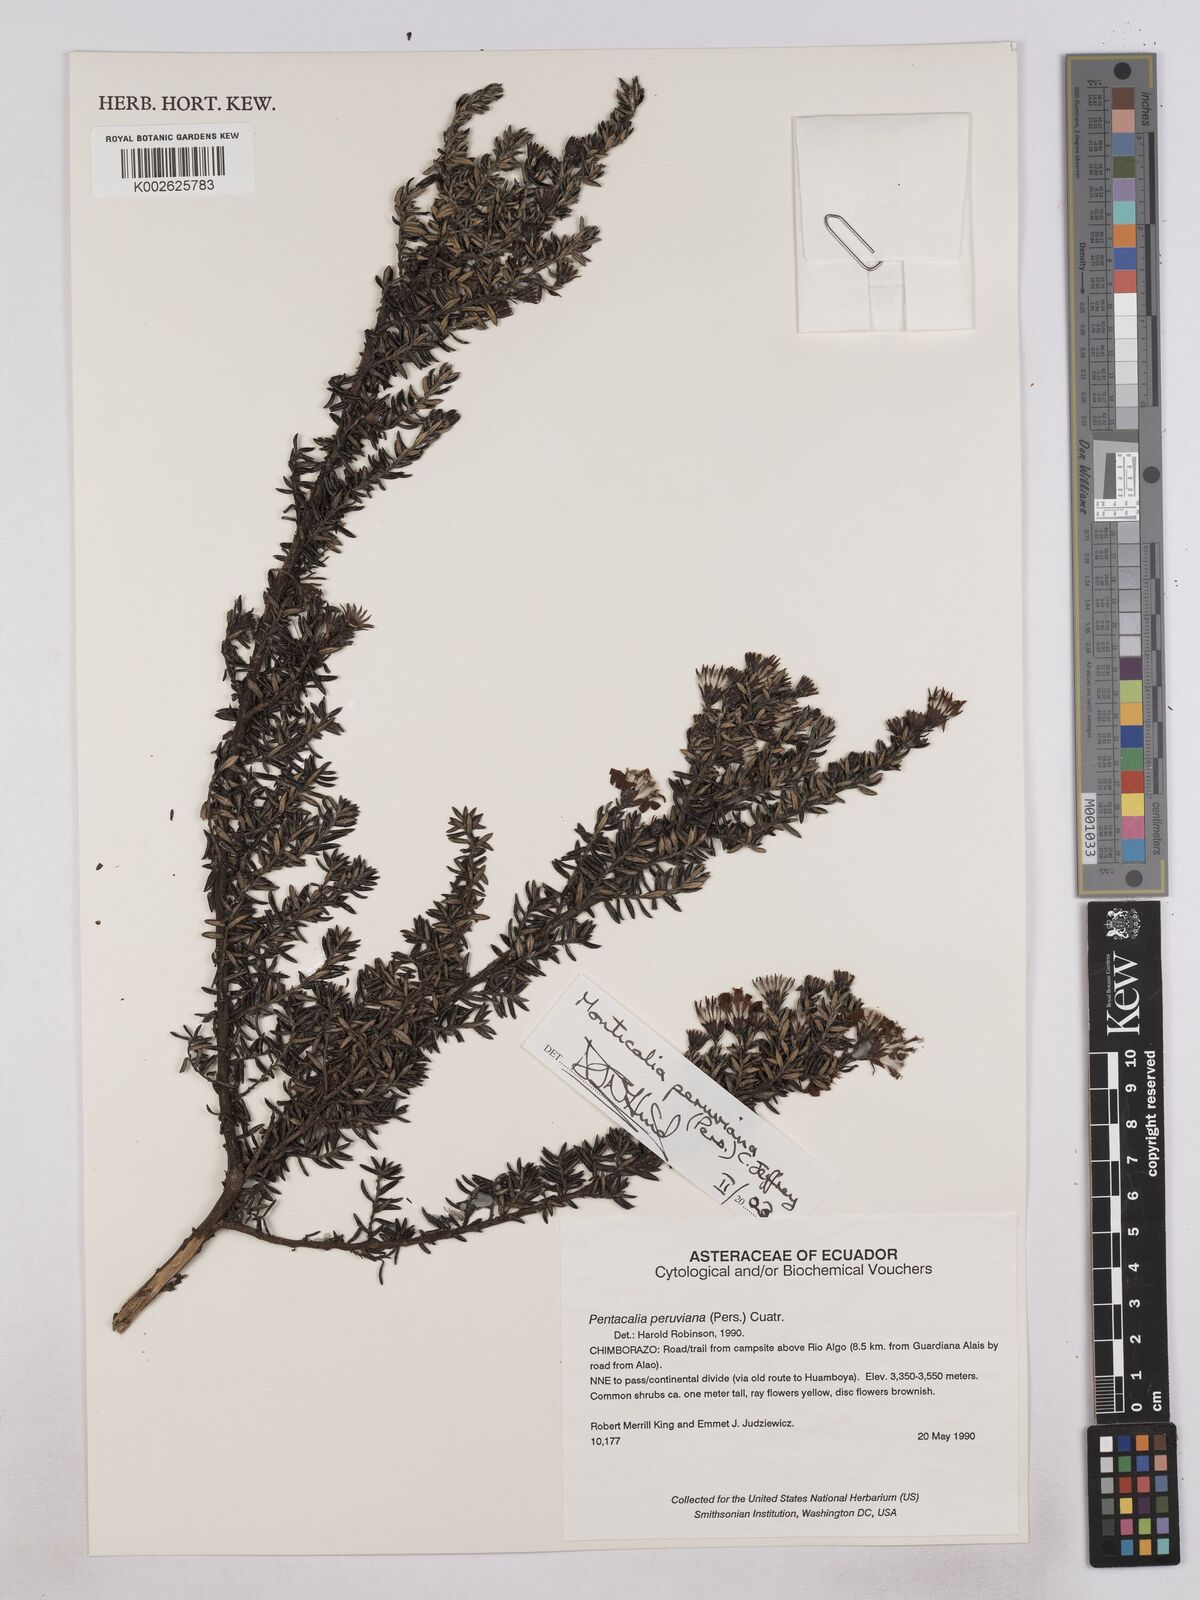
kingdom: Plantae
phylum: Tracheophyta
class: Magnoliopsida
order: Asterales
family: Asteraceae
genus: Monticalia
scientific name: Monticalia peruviana
